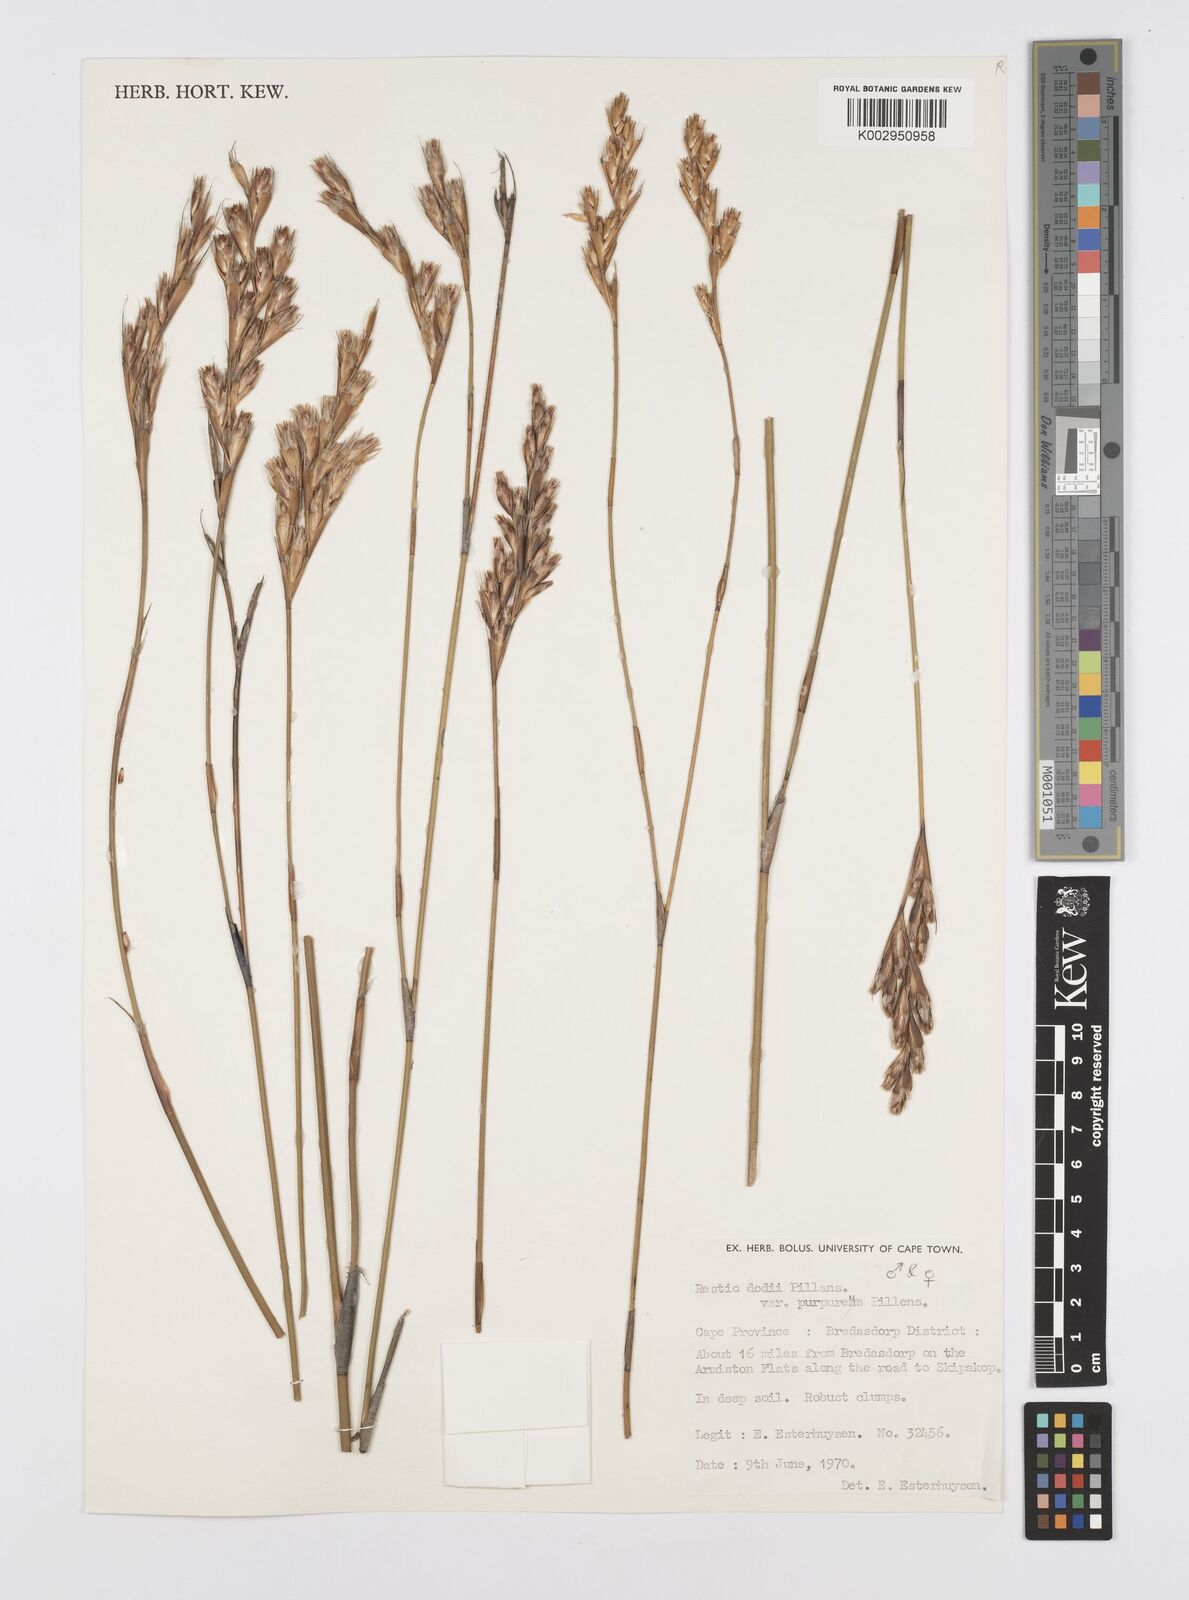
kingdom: Plantae
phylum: Tracheophyta
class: Liliopsida
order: Poales
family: Restionaceae
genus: Restio
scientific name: Restio dodii
